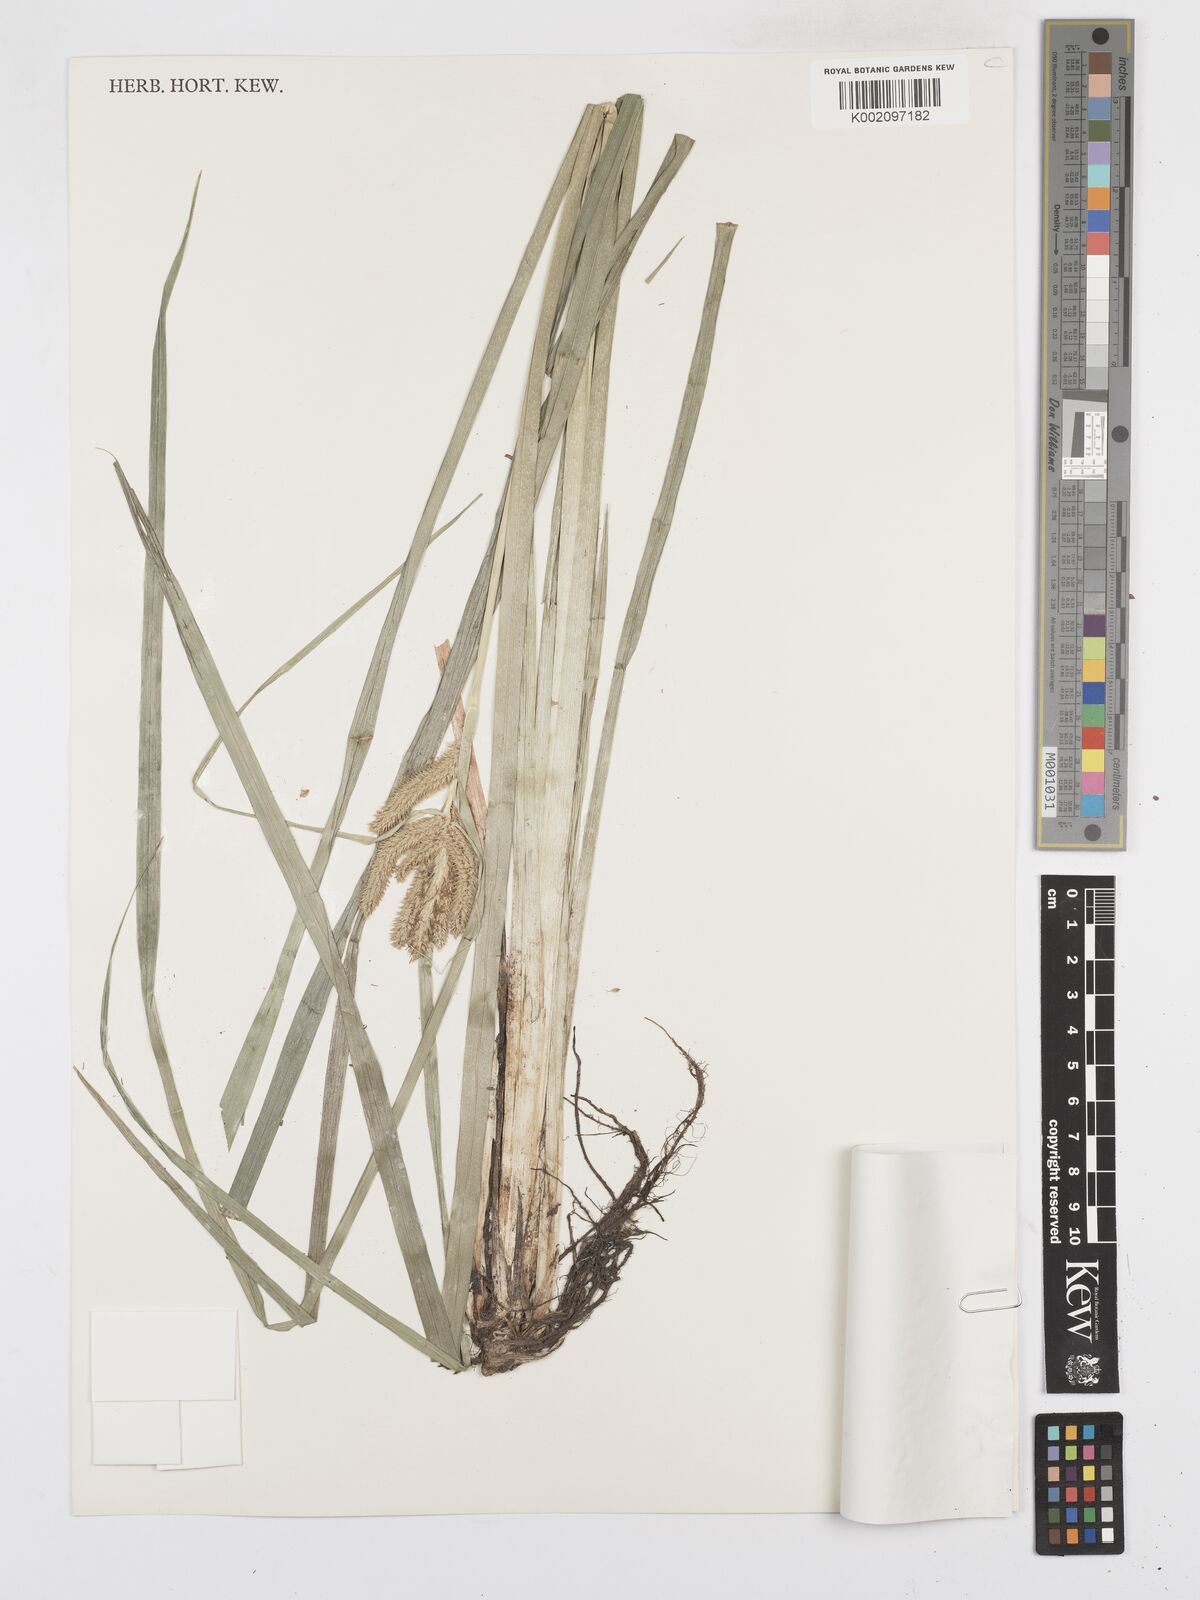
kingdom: Plantae
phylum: Tracheophyta
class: Liliopsida
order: Poales
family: Cyperaceae
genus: Carex
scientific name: Carex cognata
